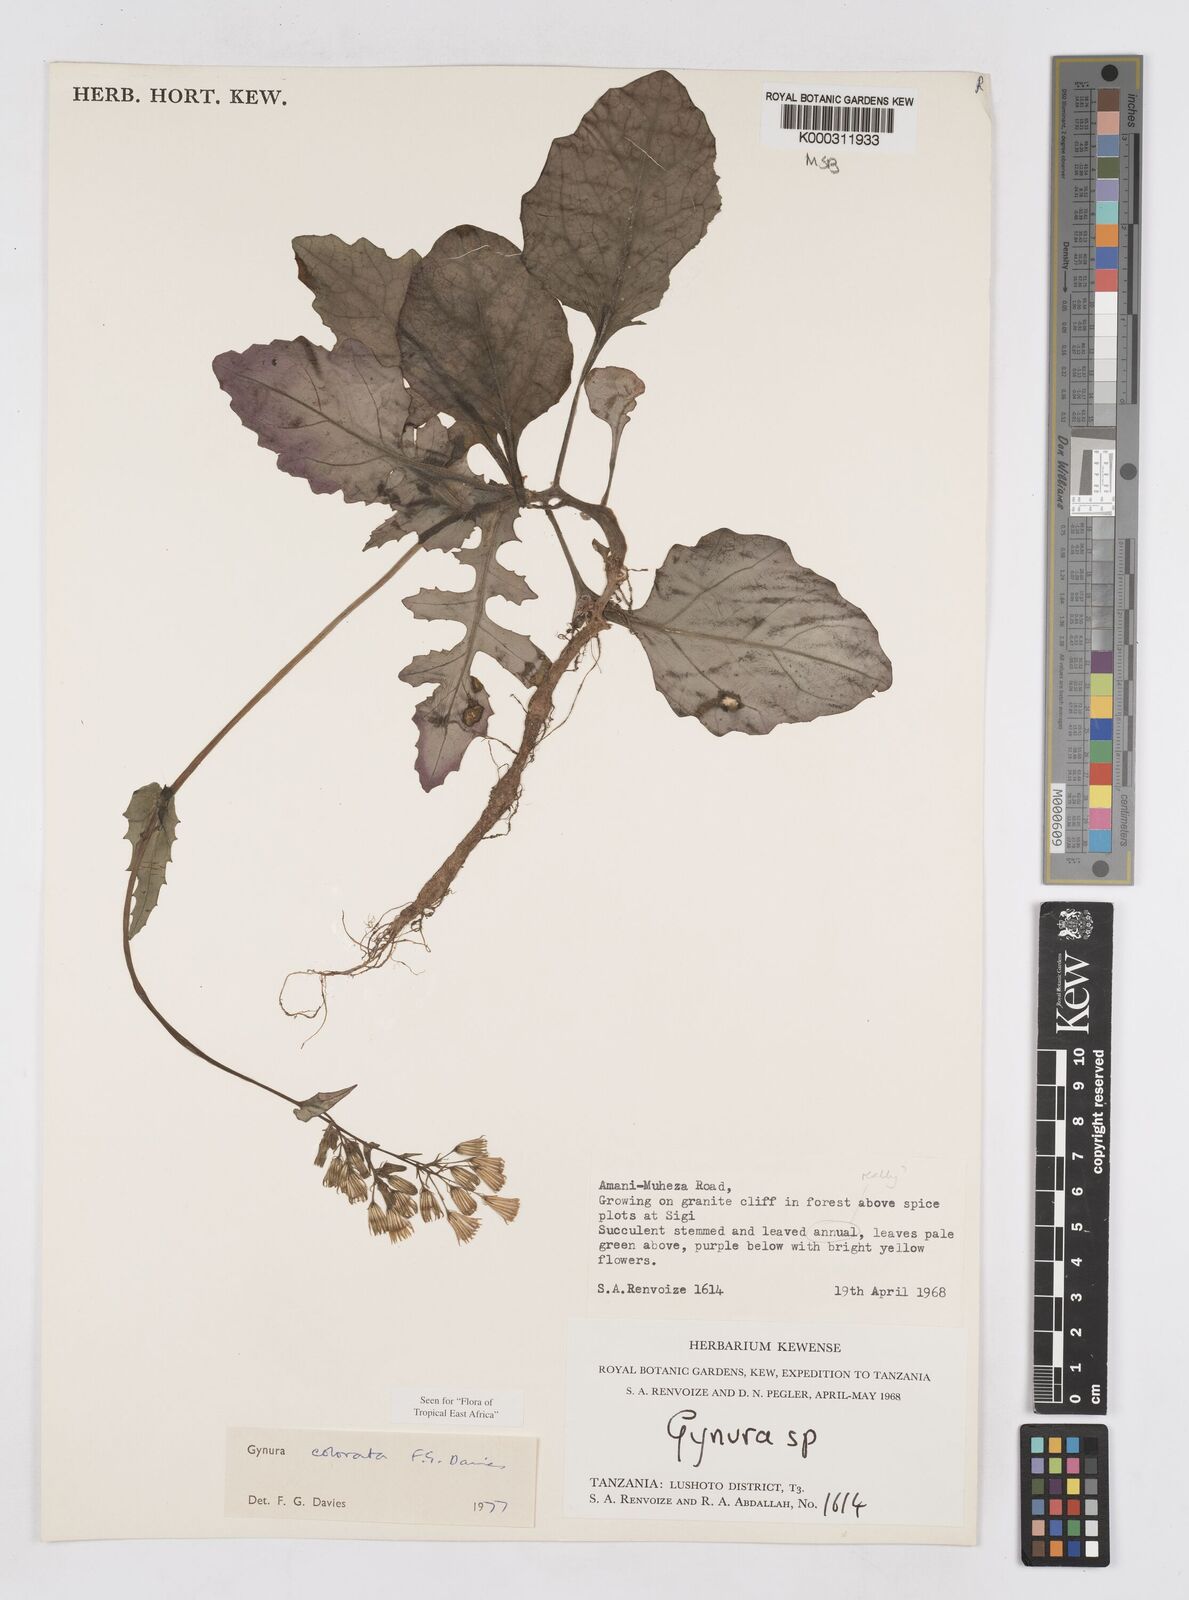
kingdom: Plantae
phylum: Tracheophyta
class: Magnoliopsida
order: Asterales
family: Asteraceae
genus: Gynura
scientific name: Gynura colorata
